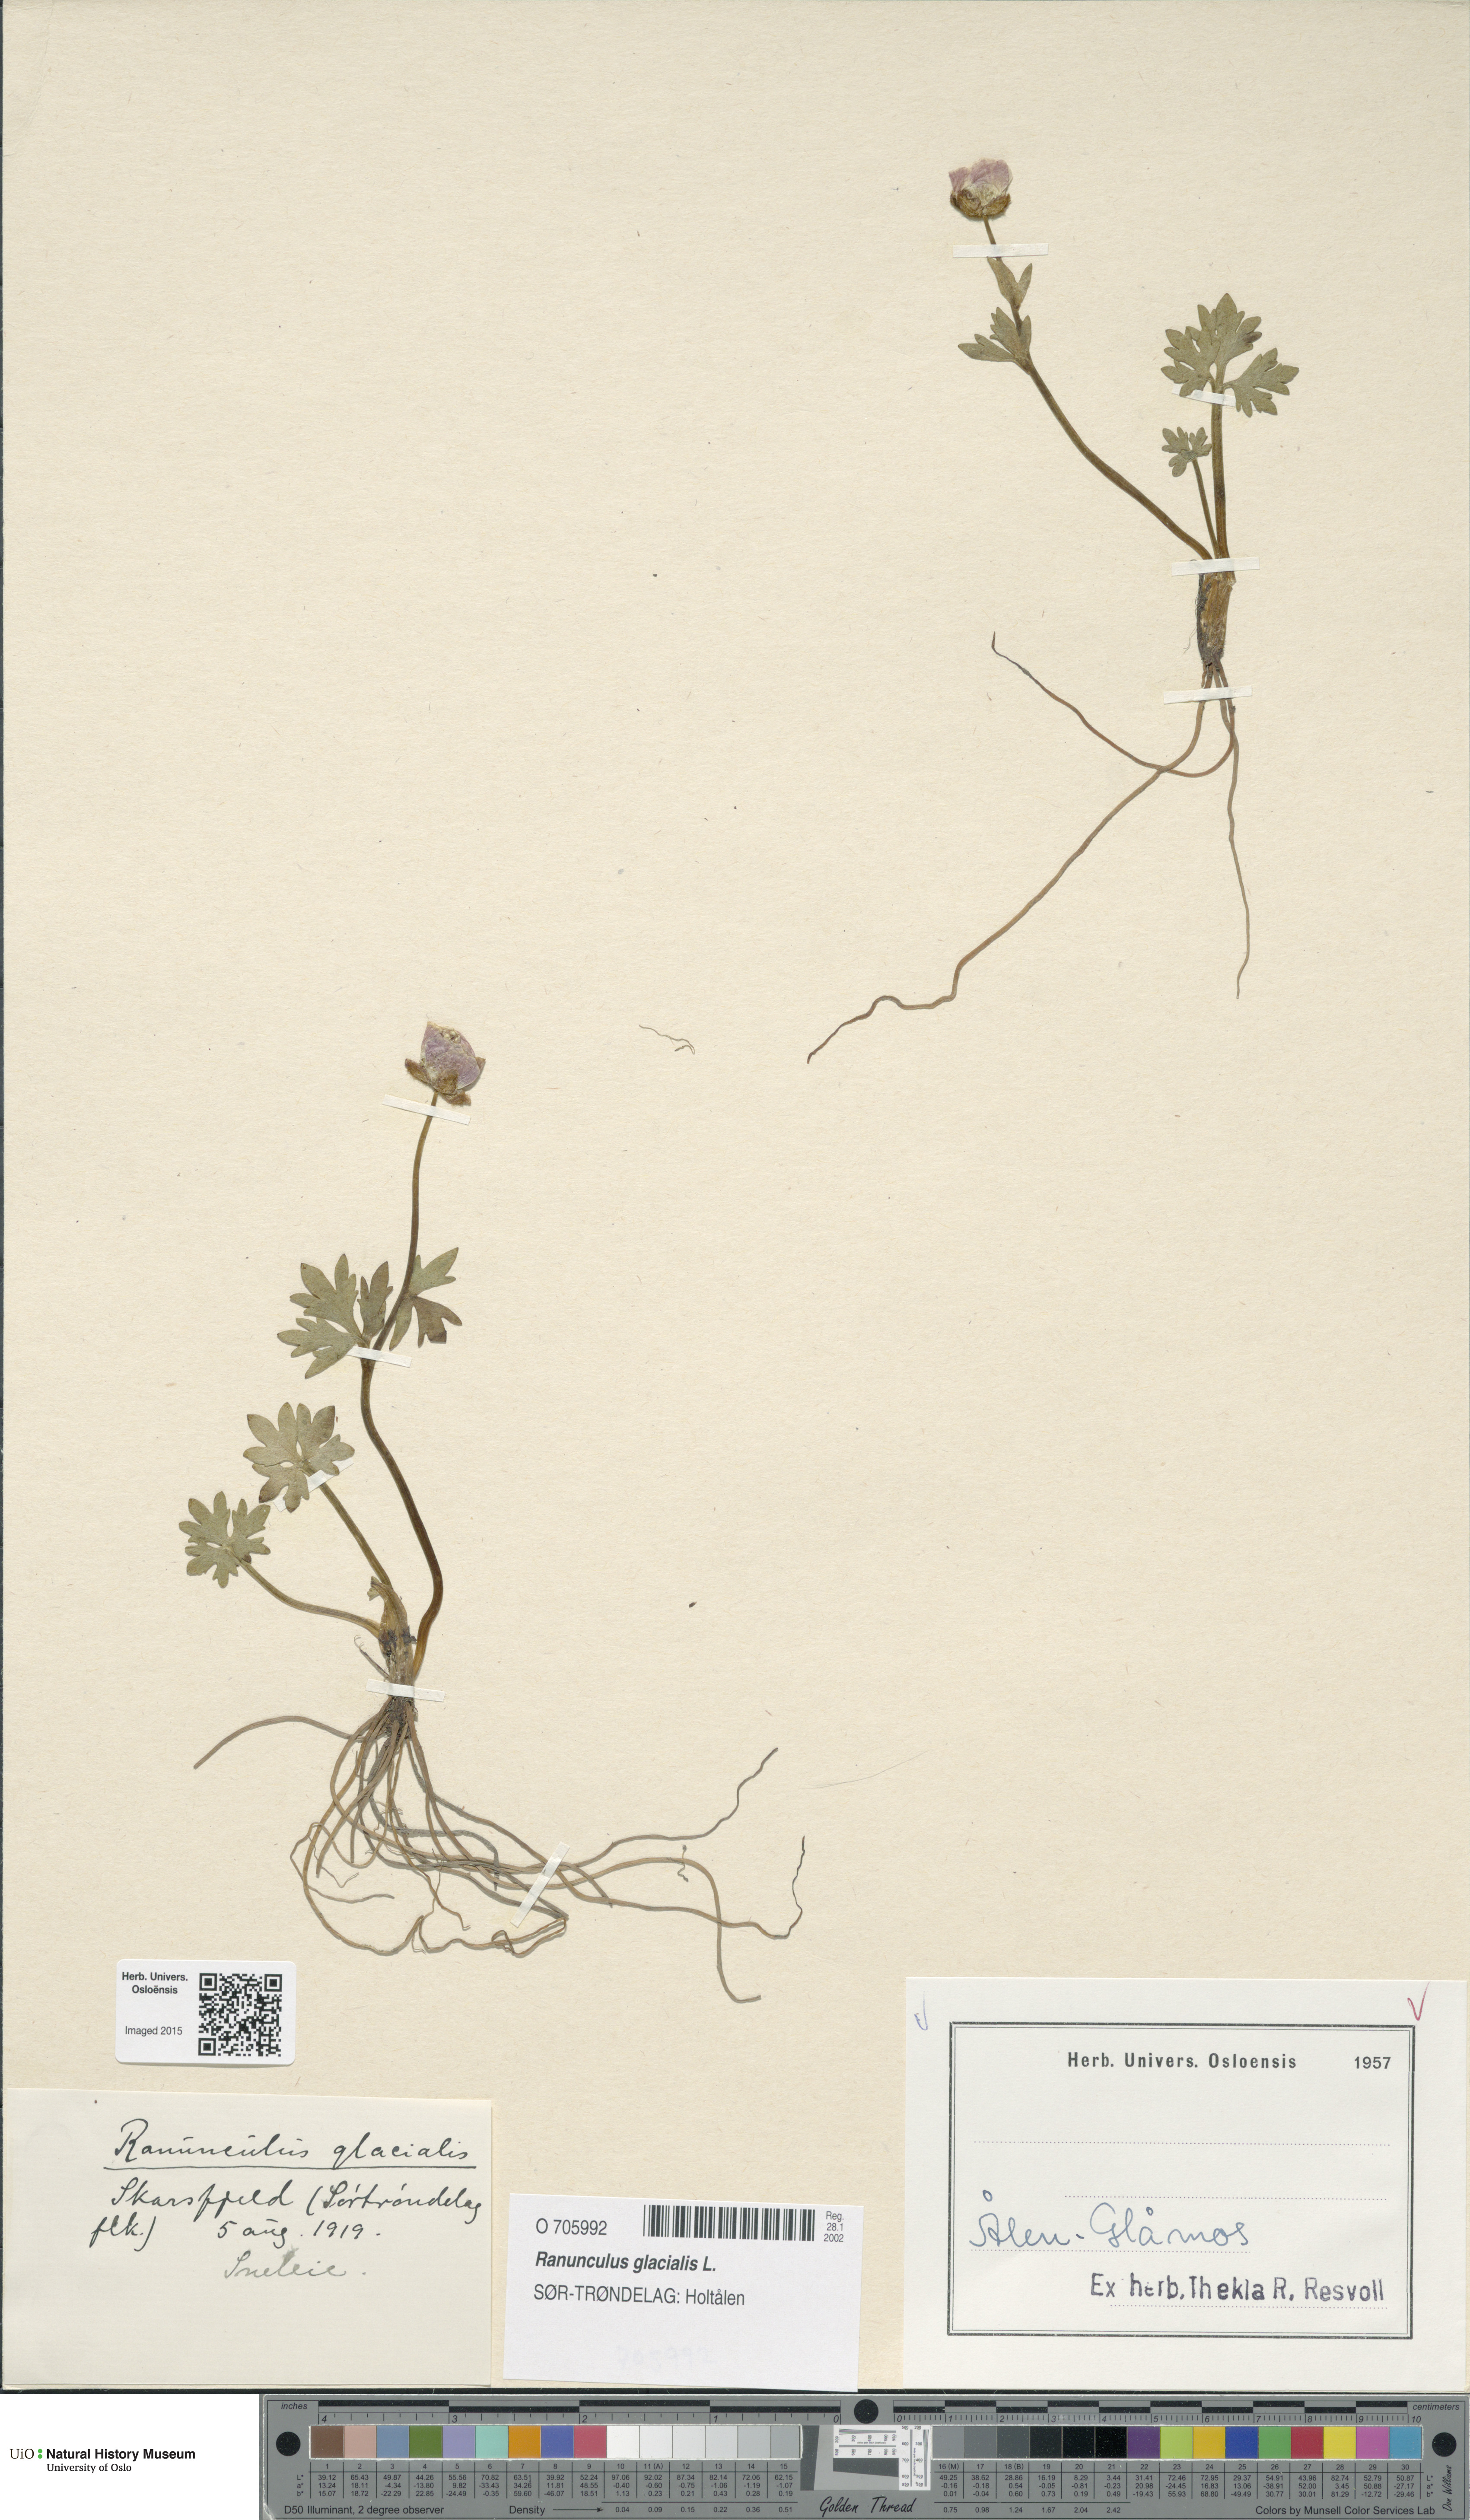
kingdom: Plantae
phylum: Tracheophyta
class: Magnoliopsida
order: Ranunculales
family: Ranunculaceae
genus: Ranunculus
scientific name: Ranunculus glacialis
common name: Glacier buttercup
